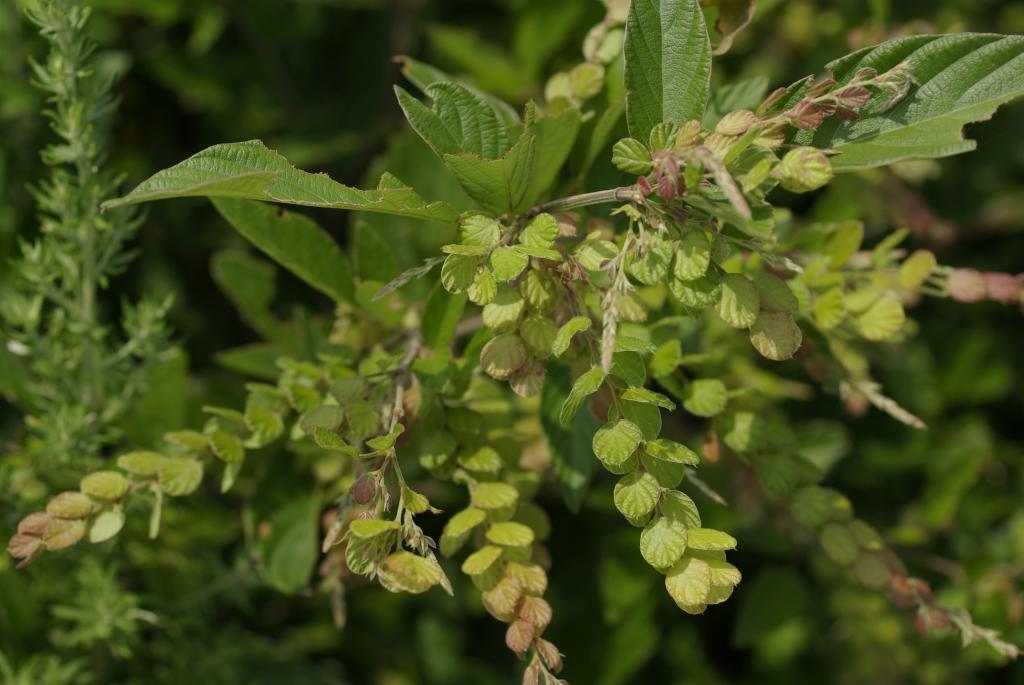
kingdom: Plantae
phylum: Tracheophyta
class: Magnoliopsida
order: Fabales
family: Fabaceae
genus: Phyllodium
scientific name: Phyllodium pulchellum
